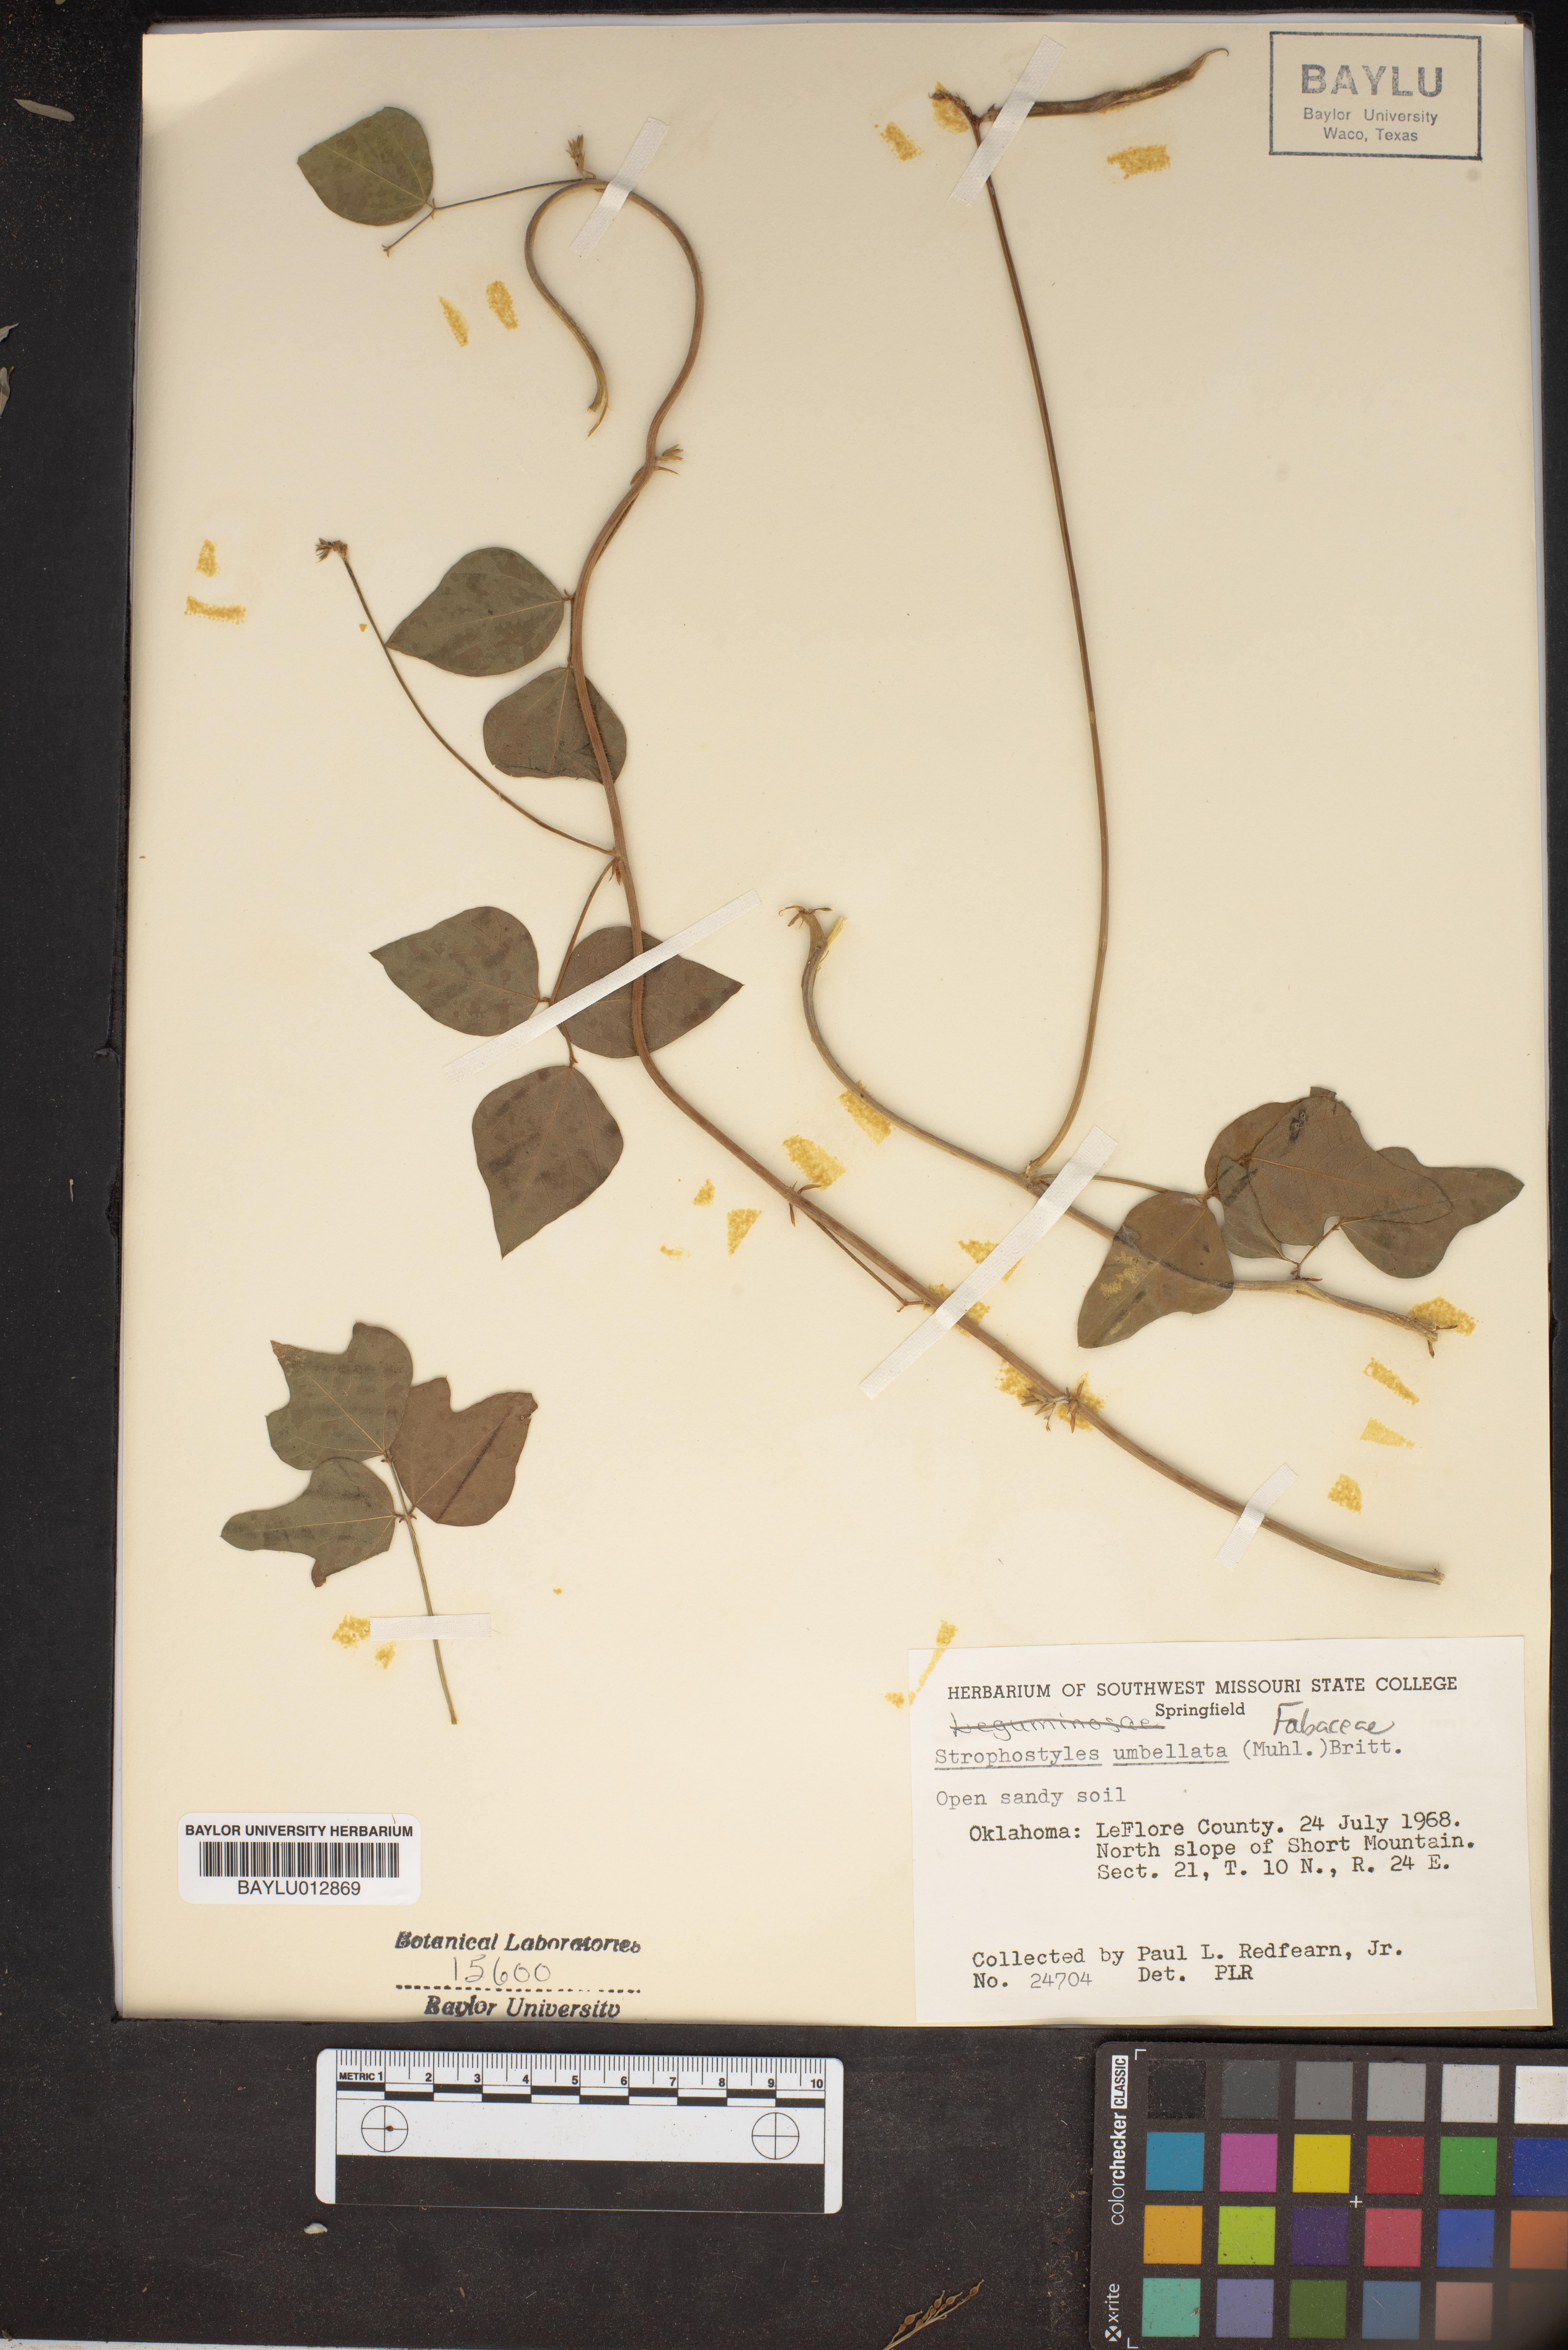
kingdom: Plantae
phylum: Tracheophyta
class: Magnoliopsida
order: Fabales
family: Fabaceae
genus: Strophostyles
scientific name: Strophostyles umbellata
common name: Perennial wild bean
